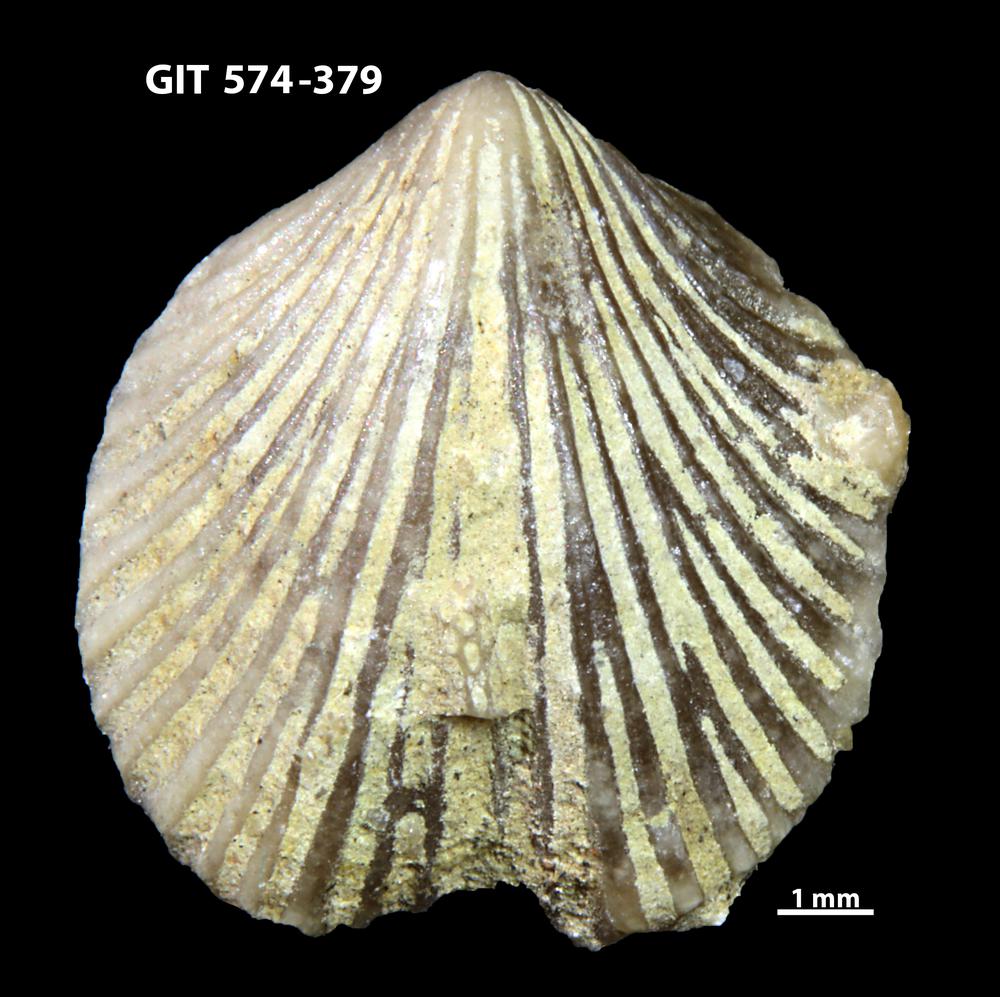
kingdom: Animalia
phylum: Brachiopoda
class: Rhynchonellata
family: Atrypinidae
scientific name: Atrypinidae
